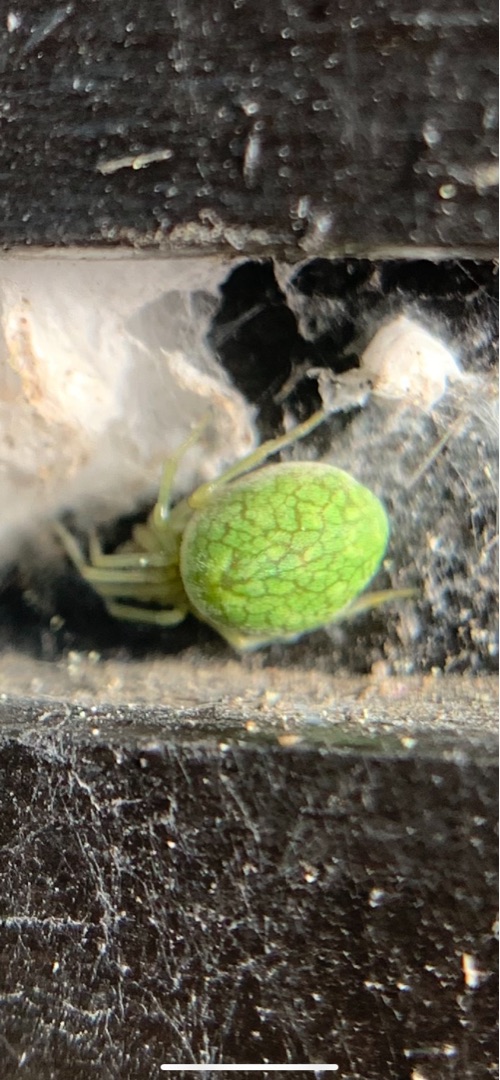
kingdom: Animalia
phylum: Arthropoda
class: Arachnida
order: Araneae
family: Dictynidae
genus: Nigma
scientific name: Nigma walckenaeri
